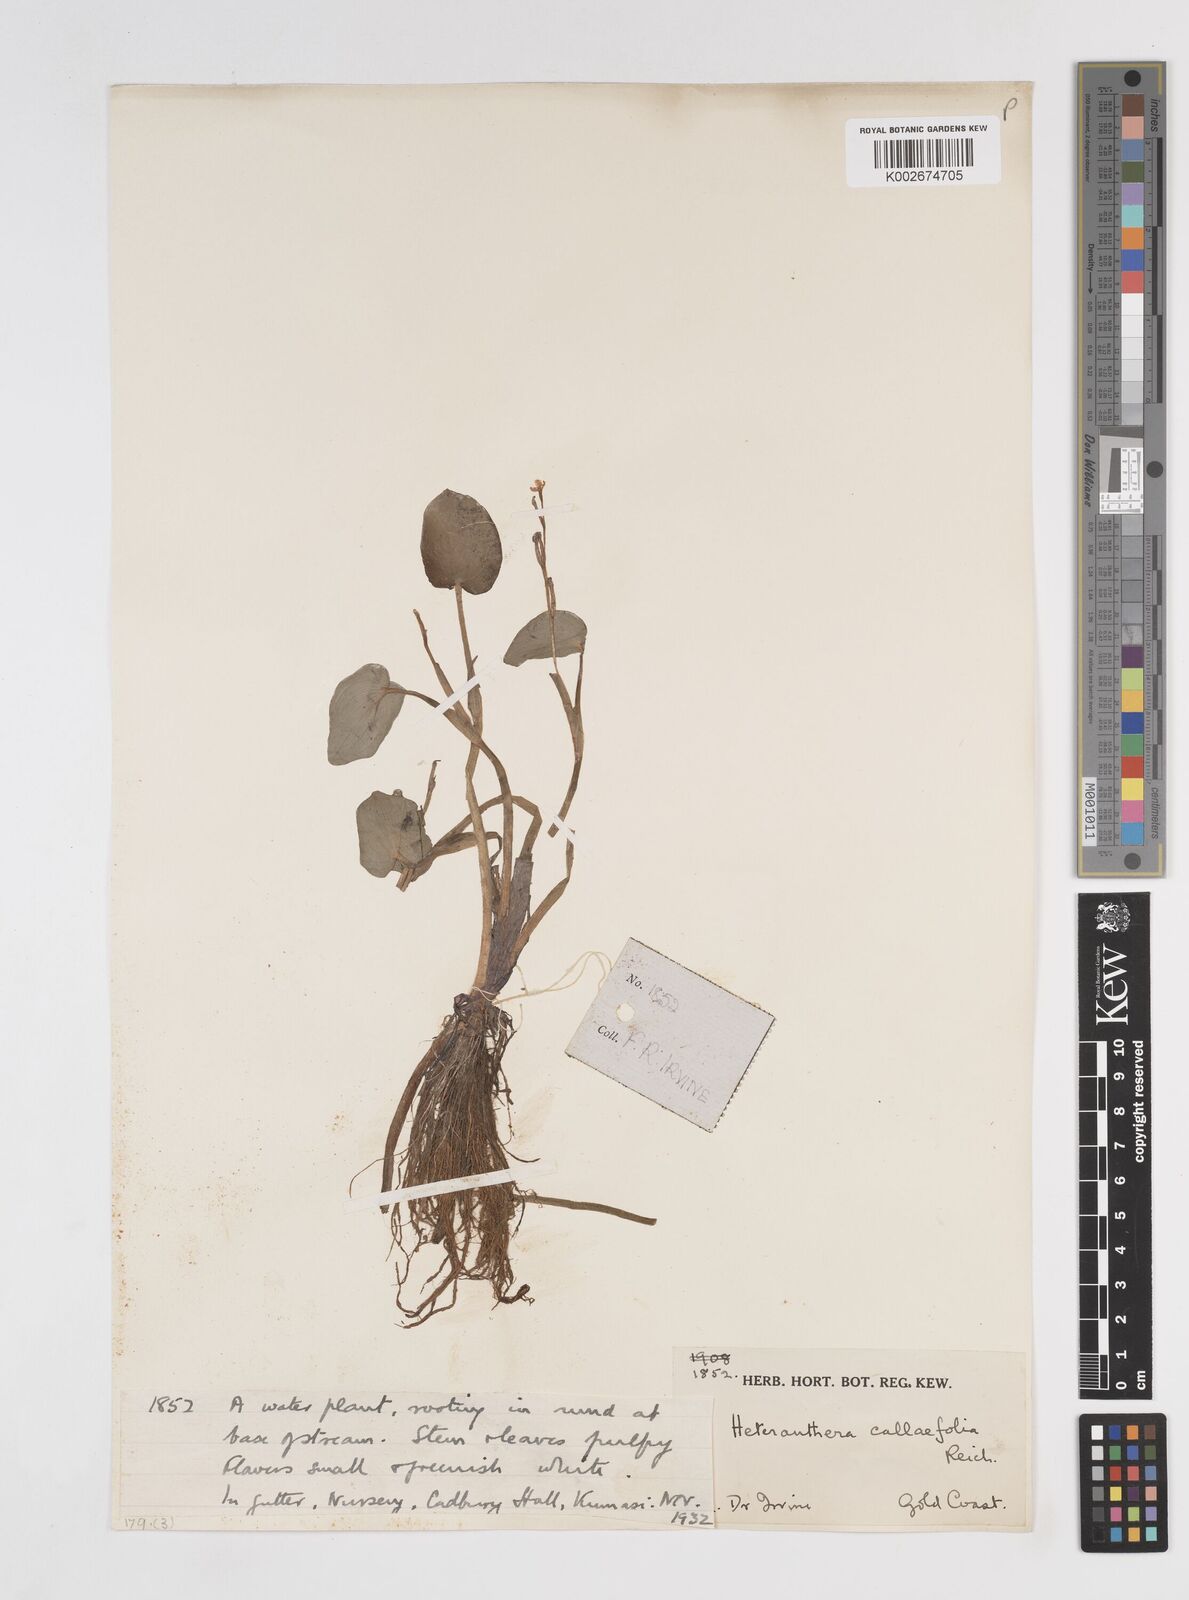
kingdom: Plantae
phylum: Tracheophyta
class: Liliopsida
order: Commelinales
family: Pontederiaceae
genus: Heteranthera
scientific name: Heteranthera callifolia
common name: Mud plantain
